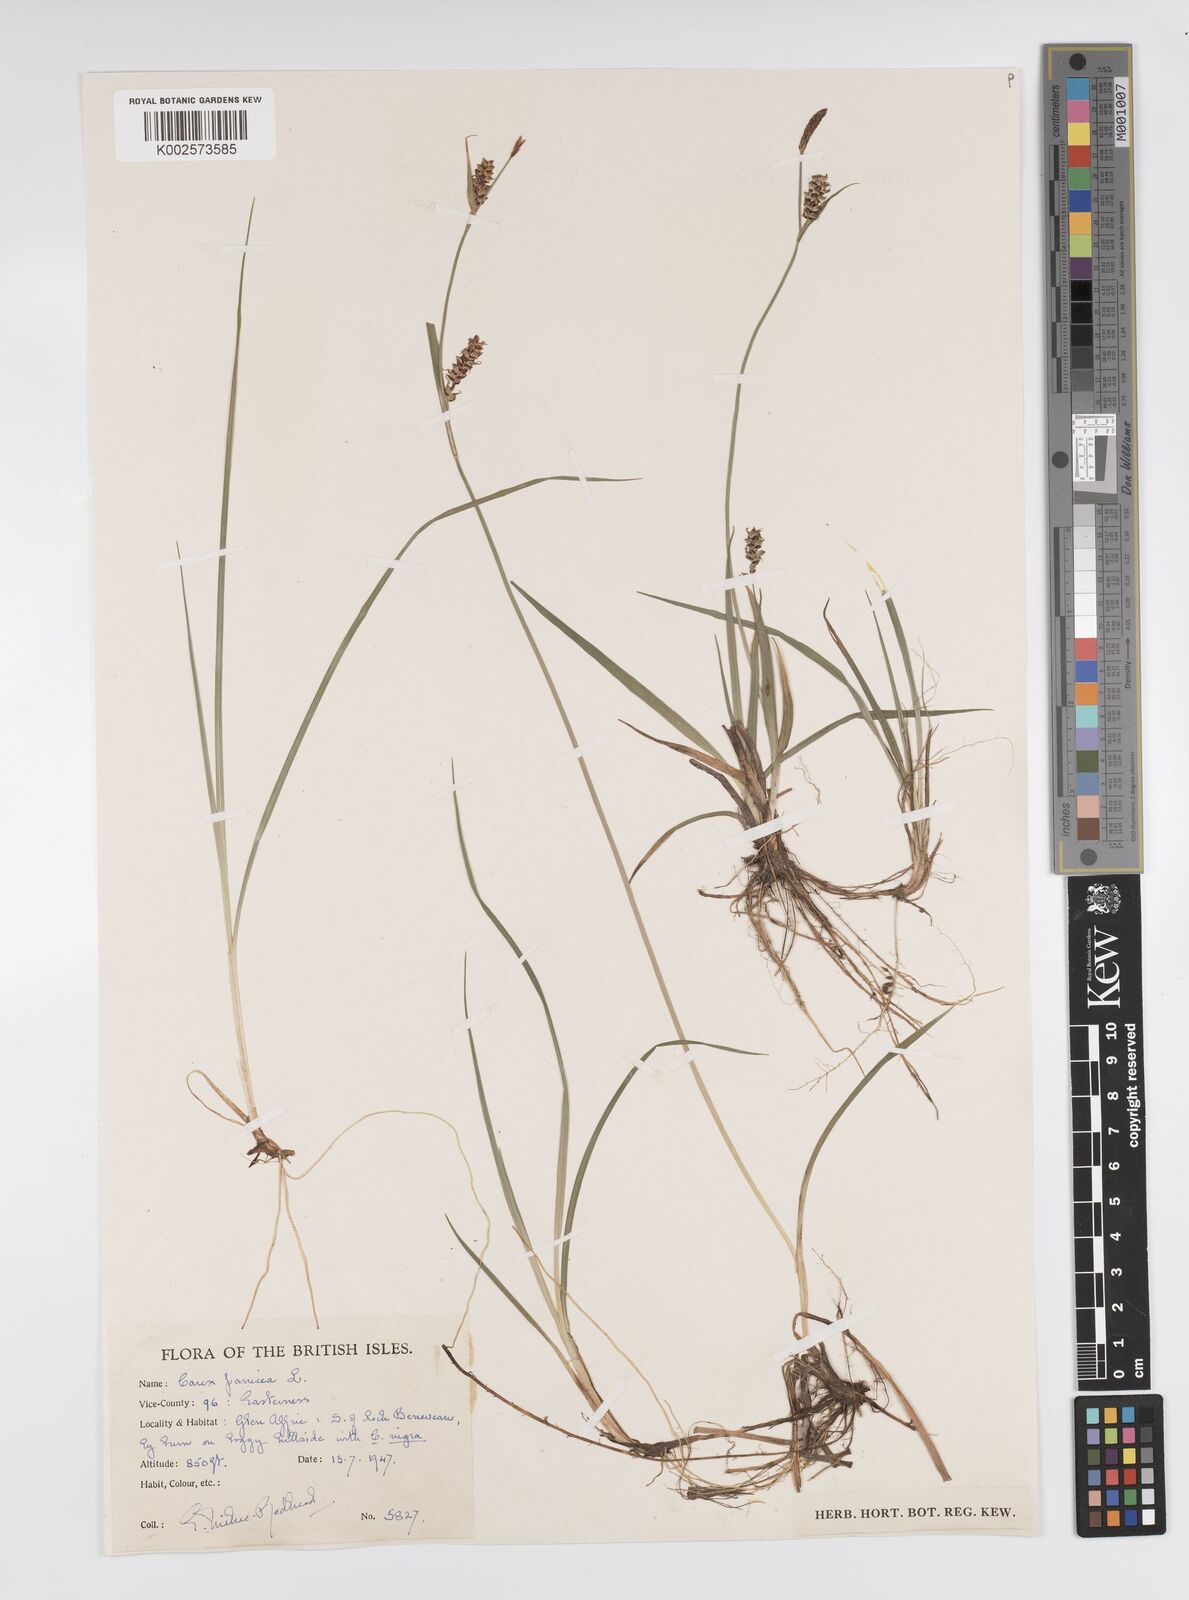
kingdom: Plantae
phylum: Tracheophyta
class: Liliopsida
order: Poales
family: Cyperaceae
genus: Carex
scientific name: Carex panicea
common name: Carnation sedge
